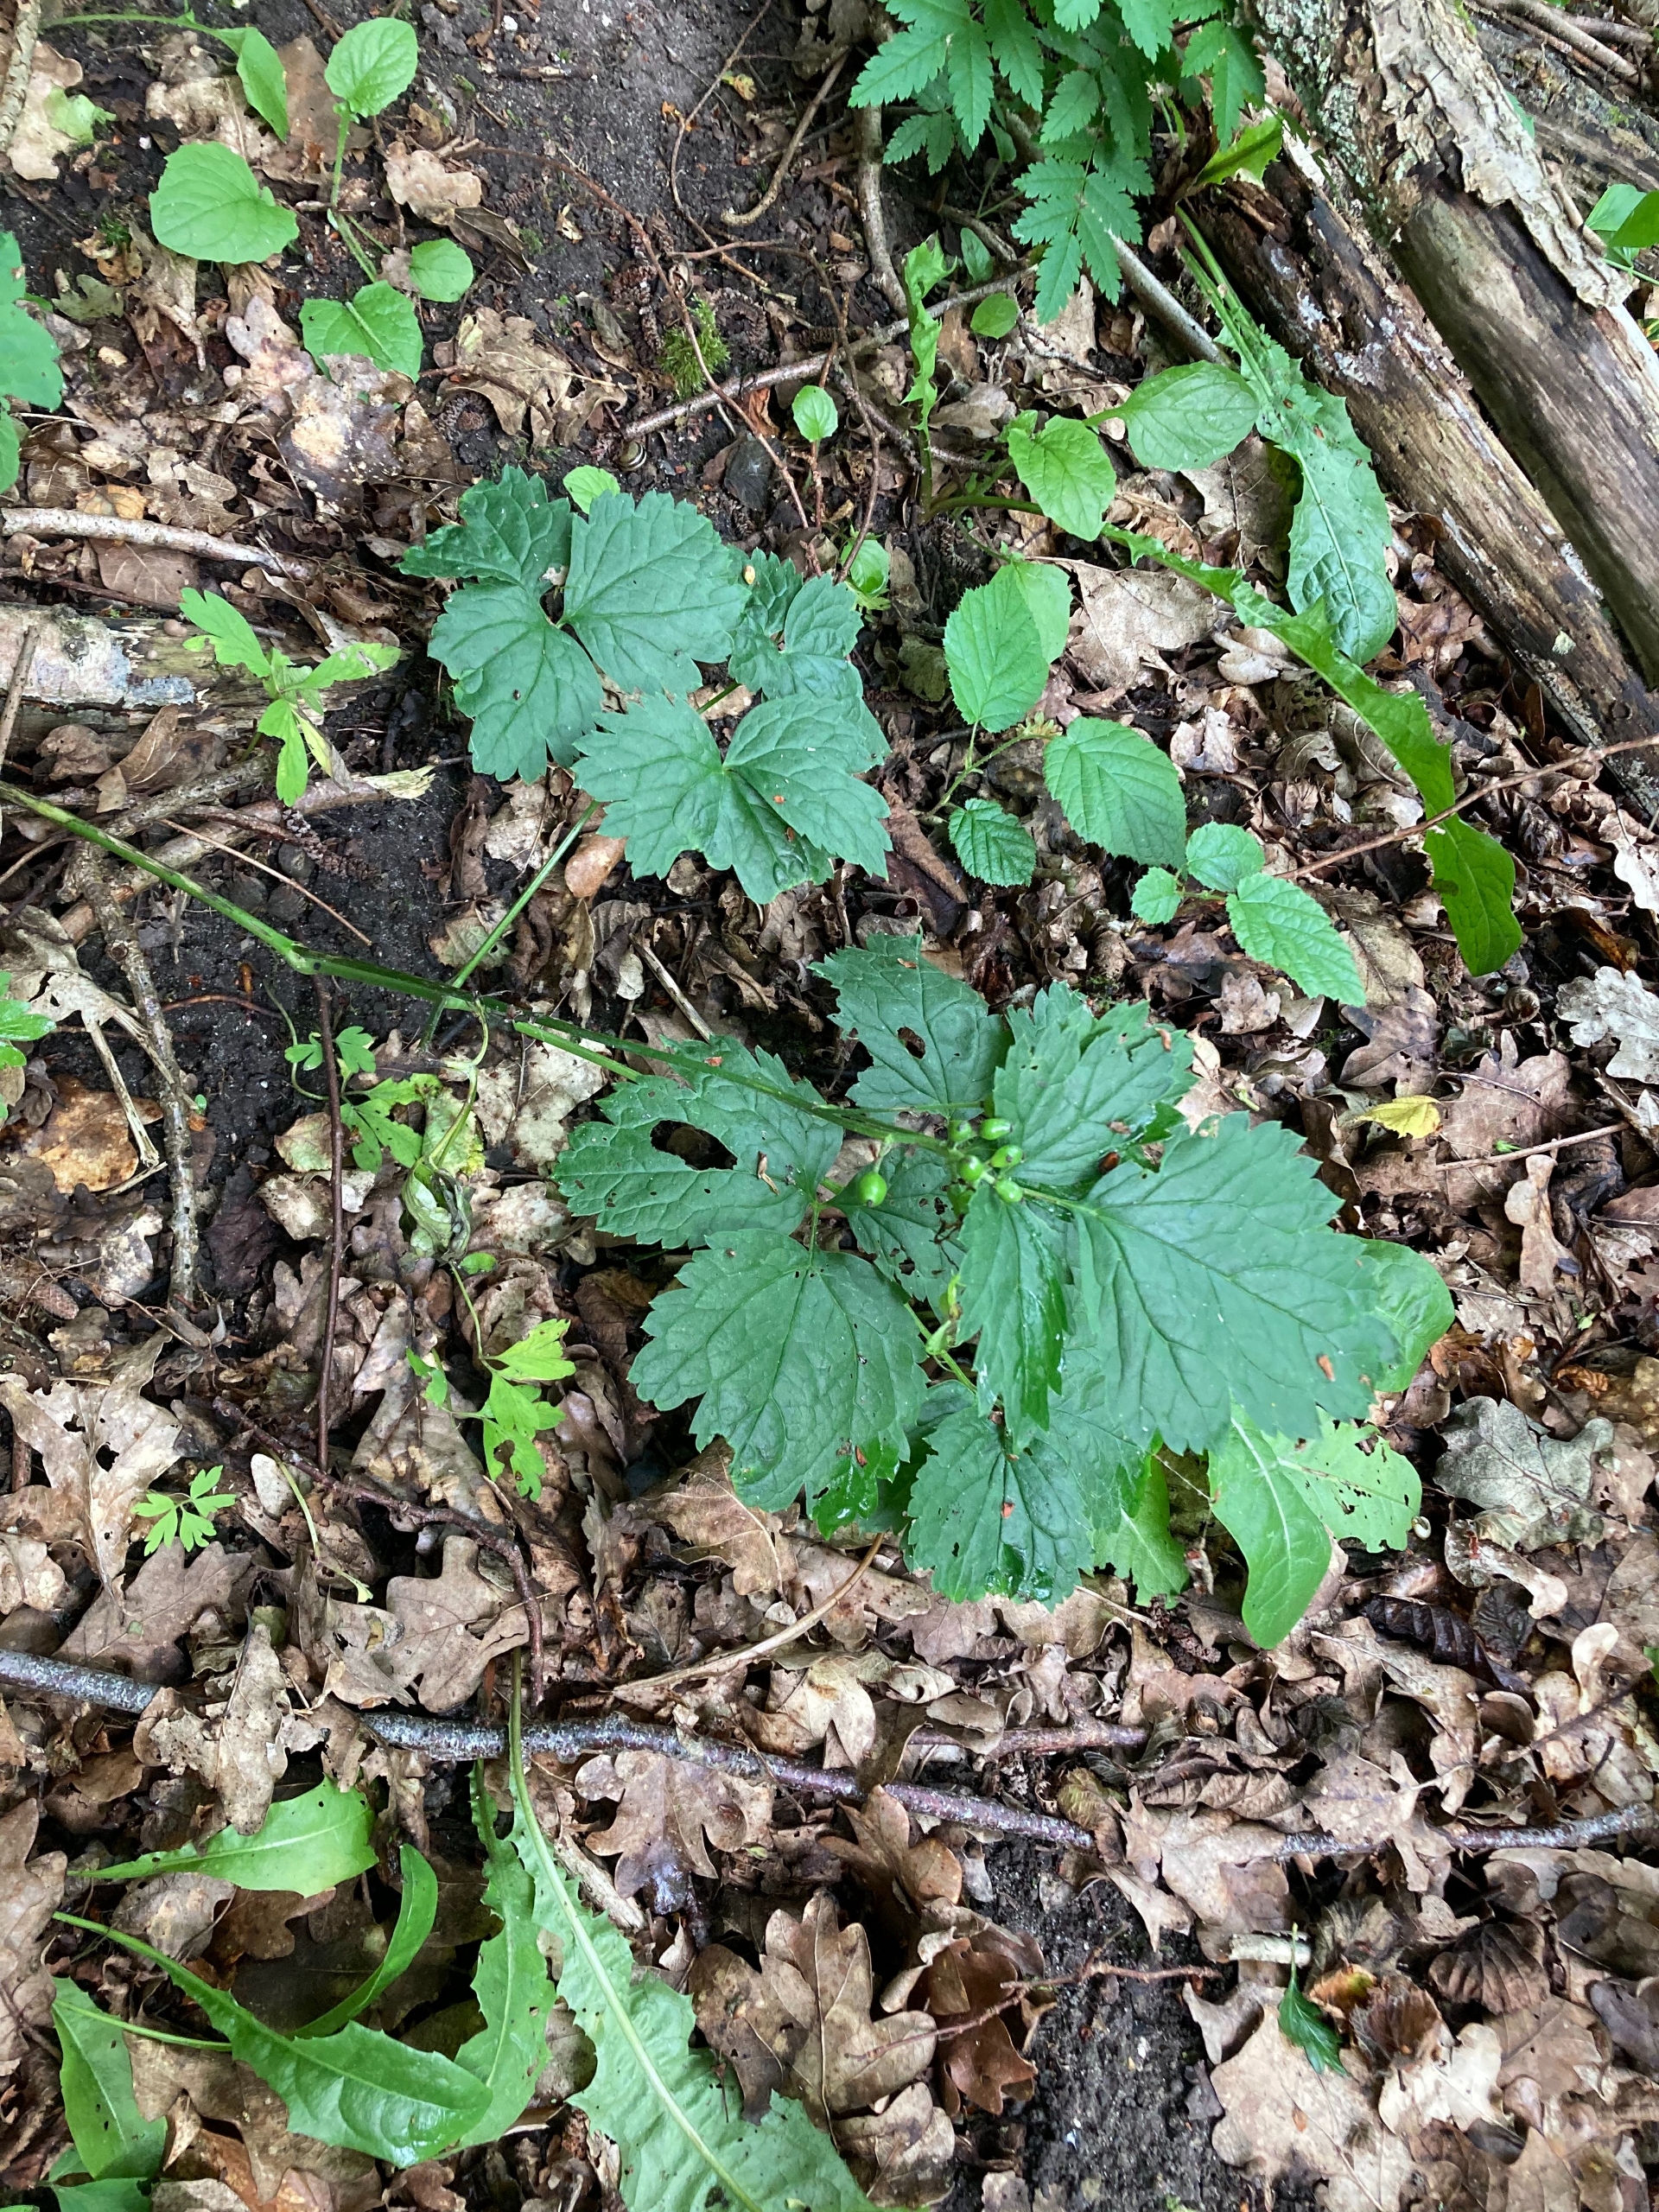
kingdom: Plantae
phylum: Tracheophyta
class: Magnoliopsida
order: Ranunculales
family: Ranunculaceae
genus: Actaea
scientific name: Actaea spicata
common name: Druemunke
